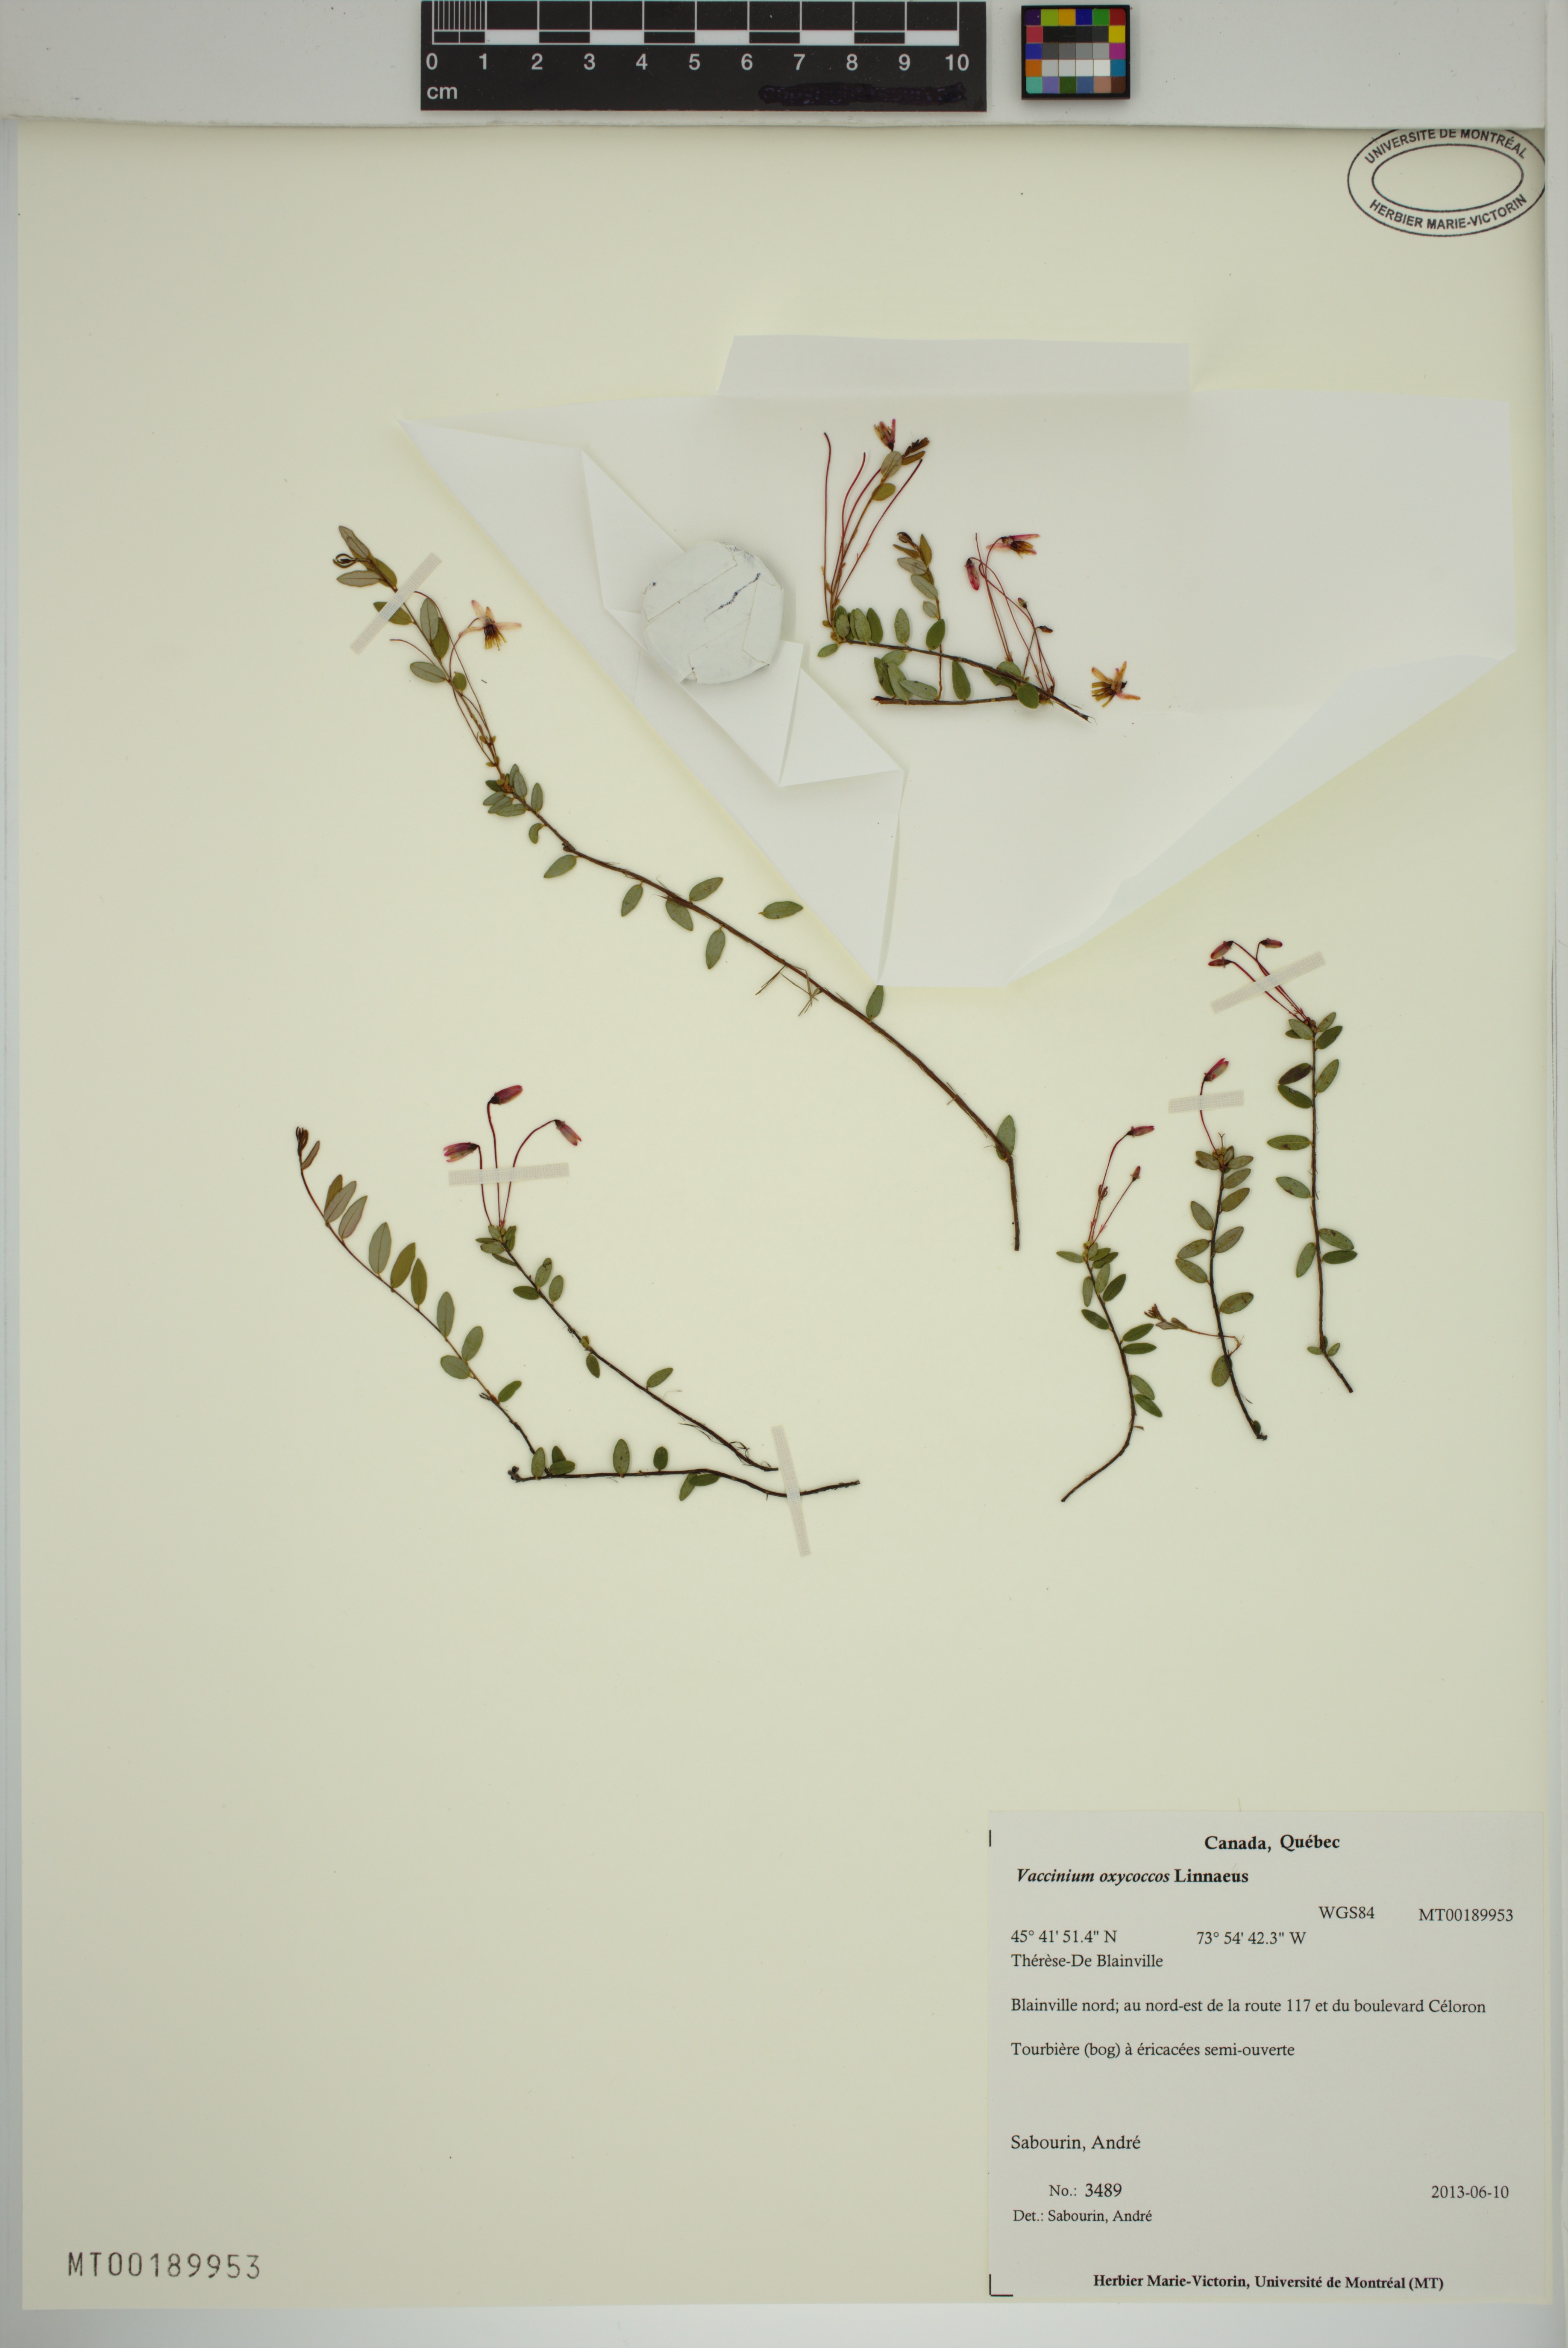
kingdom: Plantae
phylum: Tracheophyta
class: Magnoliopsida
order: Ericales
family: Ericaceae
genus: Vaccinium
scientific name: Vaccinium oxycoccos
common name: Cranberry
